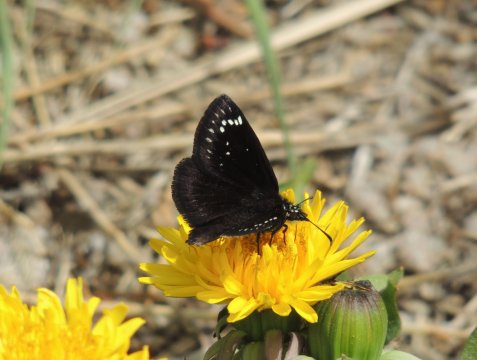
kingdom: Animalia
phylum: Arthropoda
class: Insecta
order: Lepidoptera
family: Hesperiidae
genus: Pholisora
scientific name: Pholisora catullus
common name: Common Sootywing
